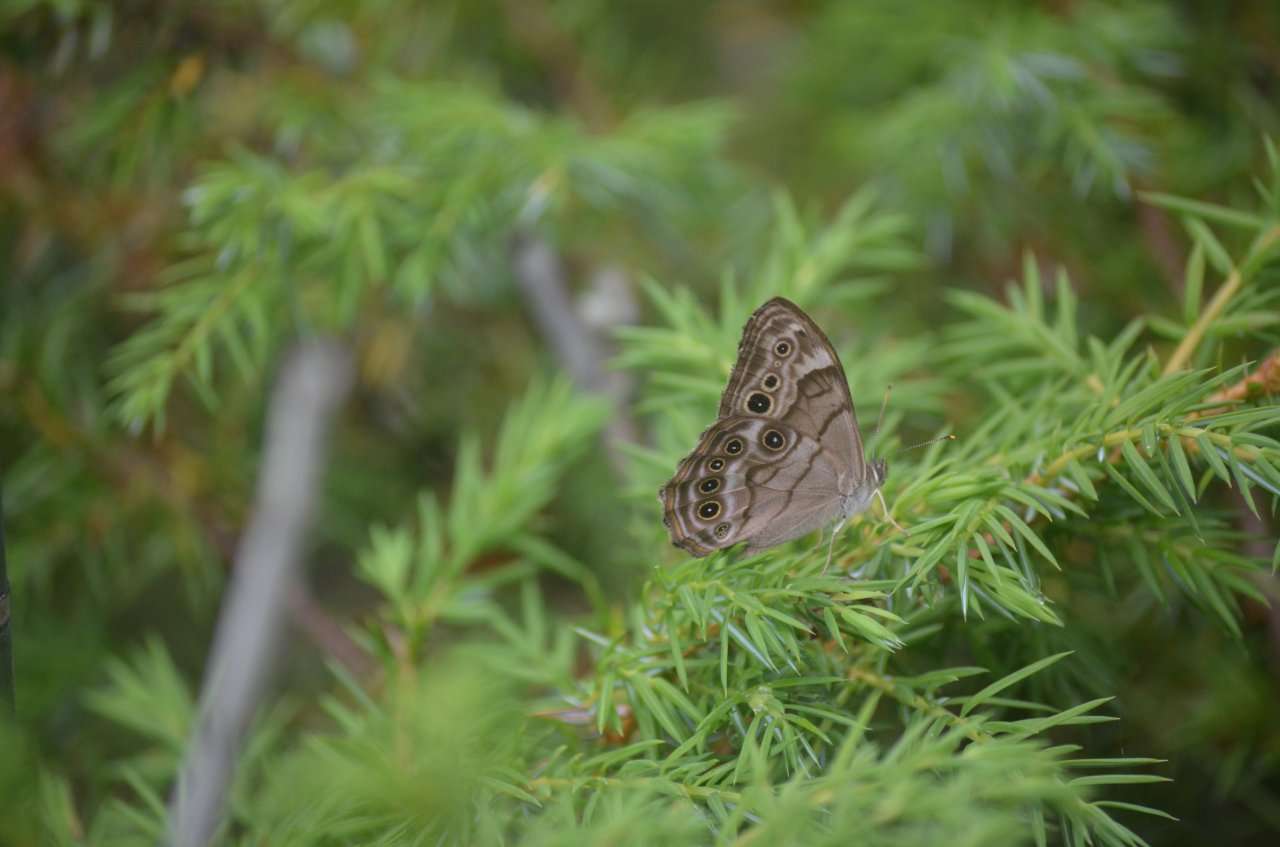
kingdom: Animalia
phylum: Arthropoda
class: Insecta
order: Lepidoptera
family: Nymphalidae
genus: Lethe
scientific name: Lethe anthedon
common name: Northern Pearly-Eye
